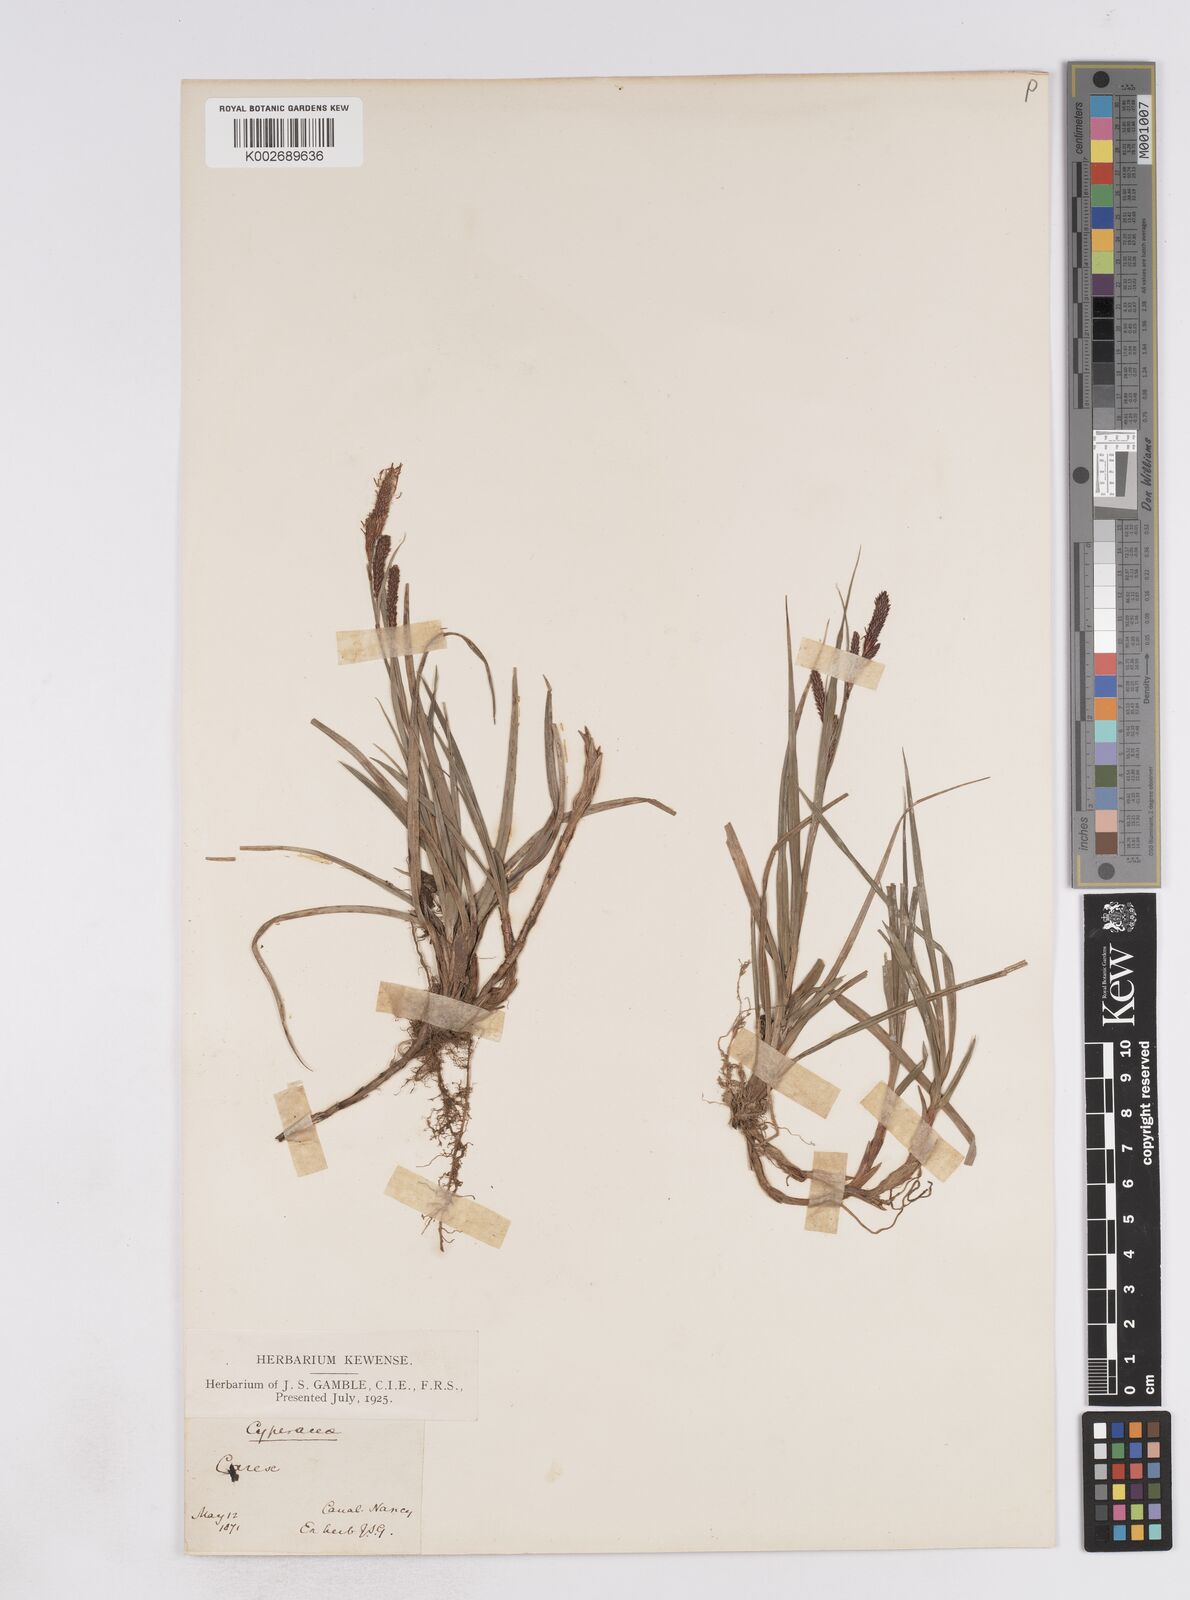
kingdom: Plantae
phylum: Tracheophyta
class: Liliopsida
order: Poales
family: Cyperaceae
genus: Carex
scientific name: Carex flacca
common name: Glaucous sedge
